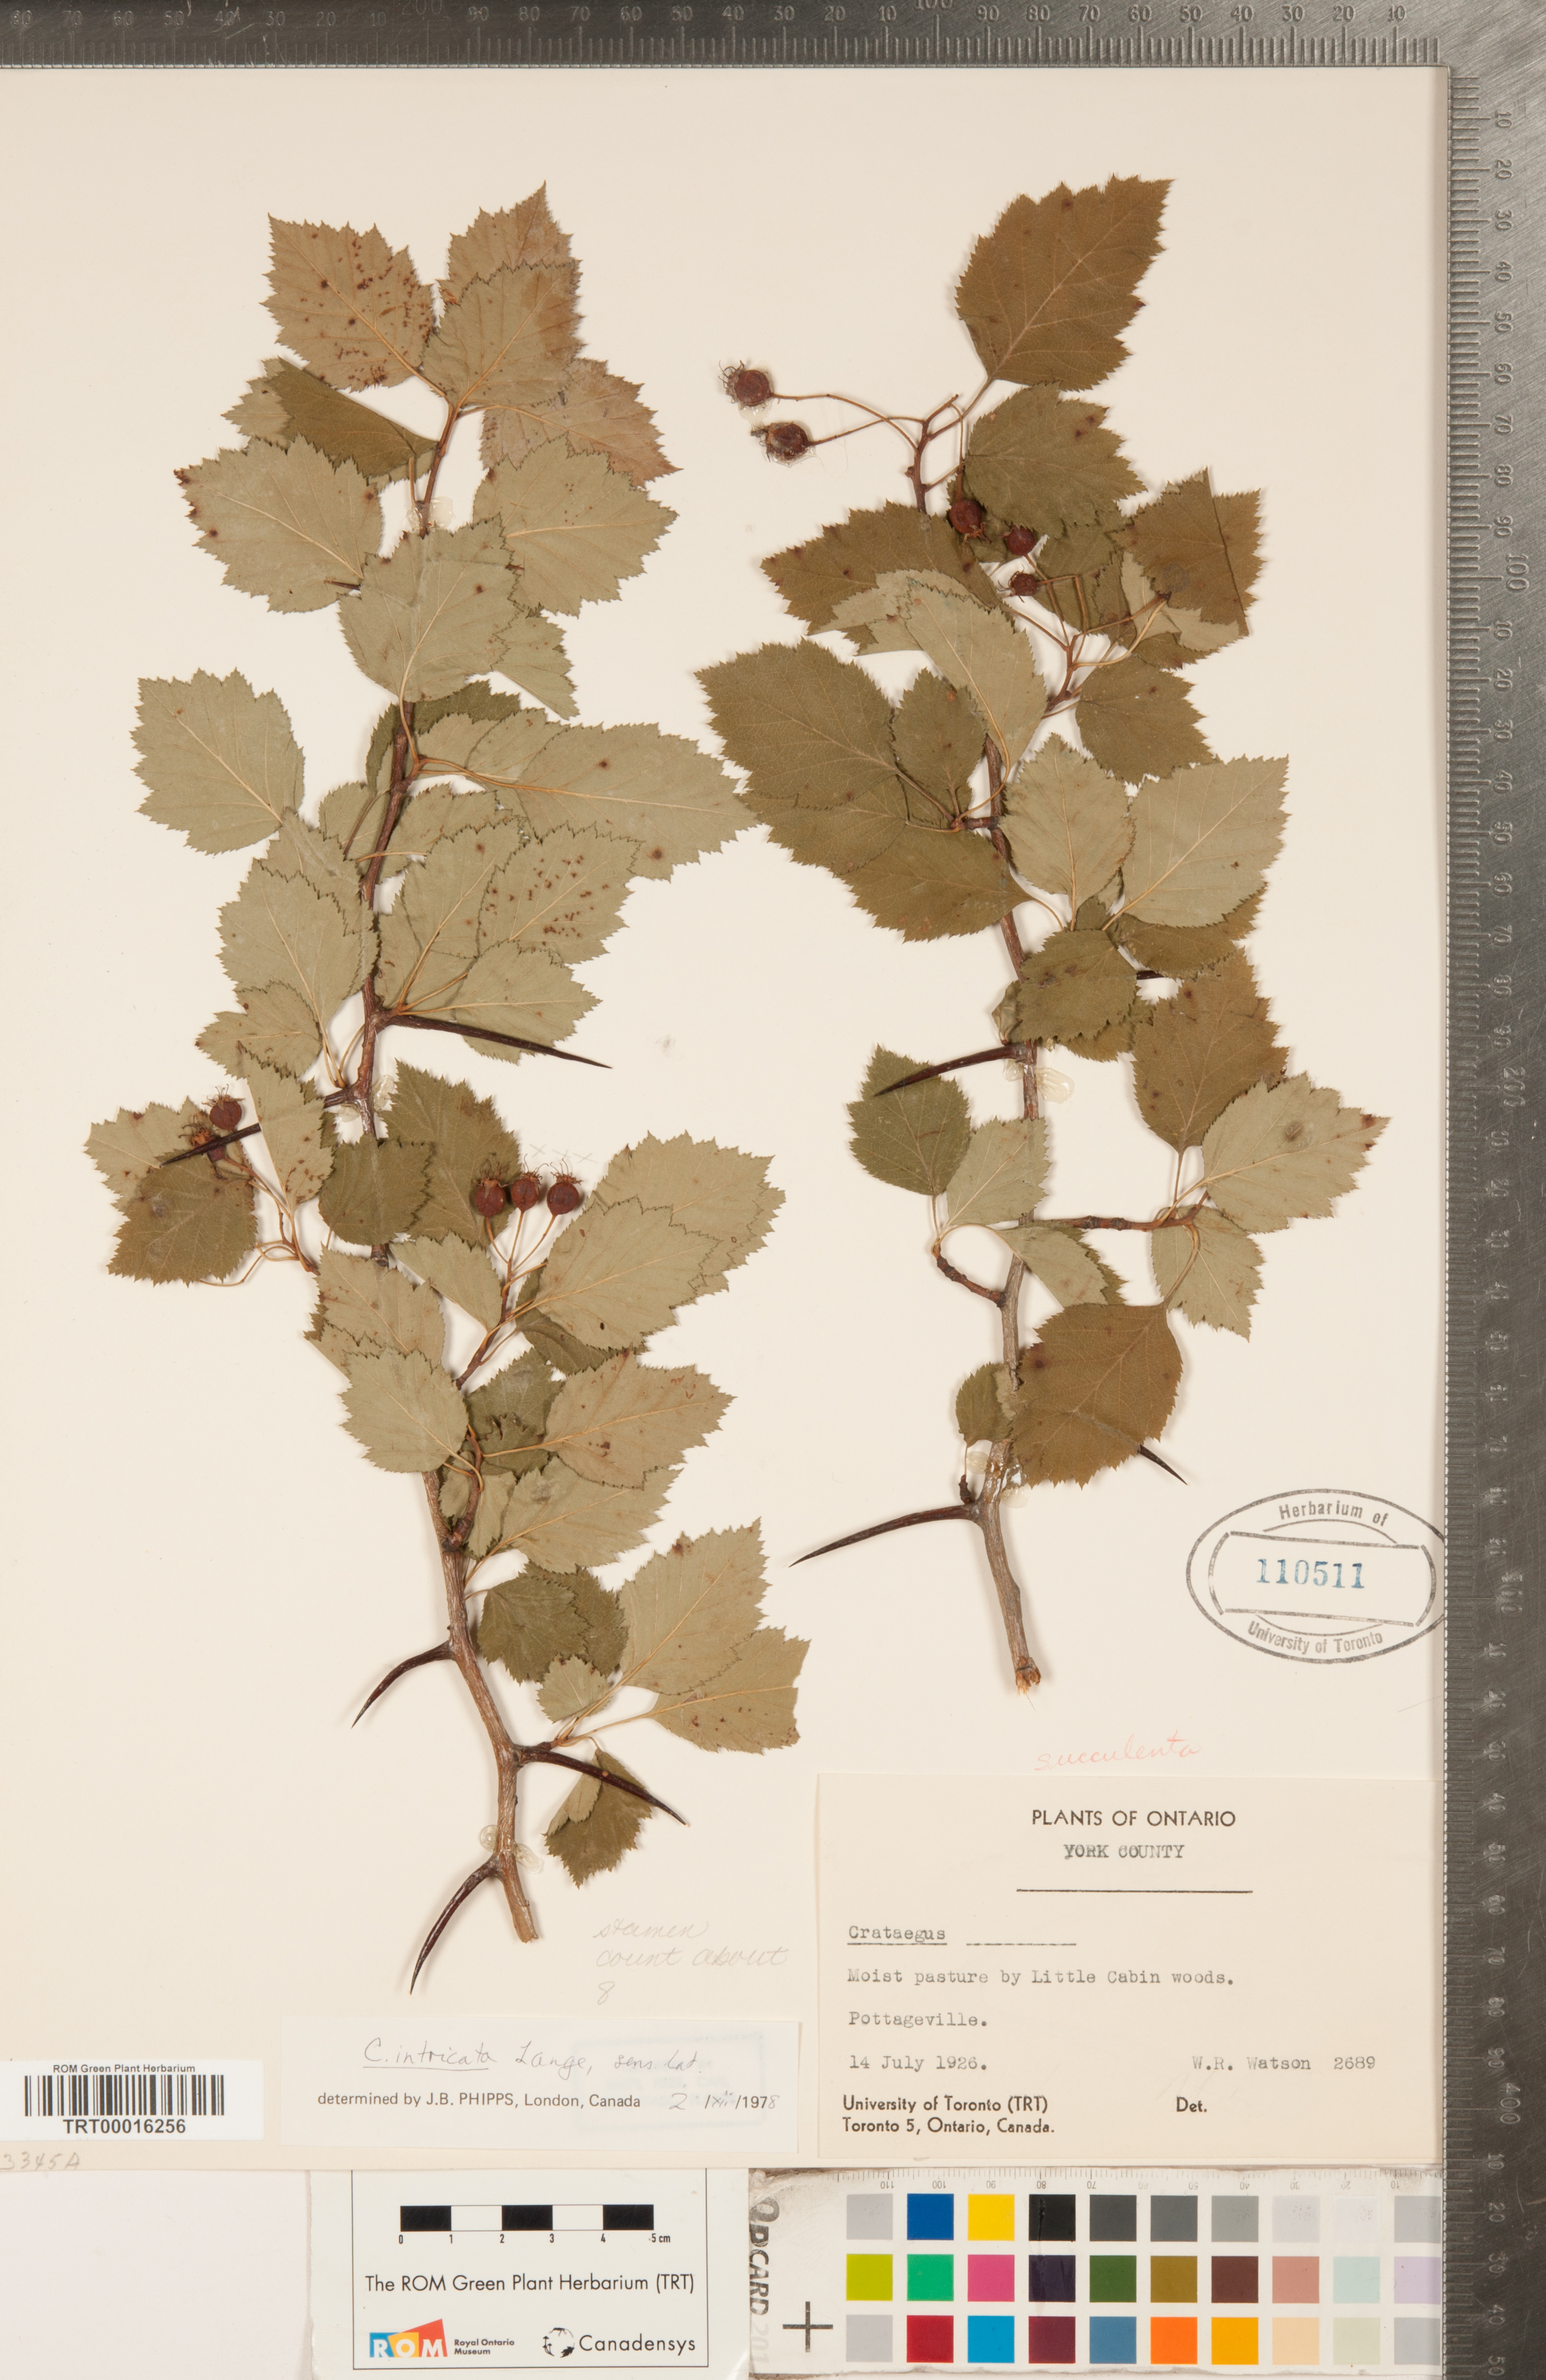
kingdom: Plantae
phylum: Tracheophyta
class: Magnoliopsida
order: Rosales
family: Rosaceae
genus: Crataegus
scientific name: Crataegus intricata
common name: Biltmore hawthorn
